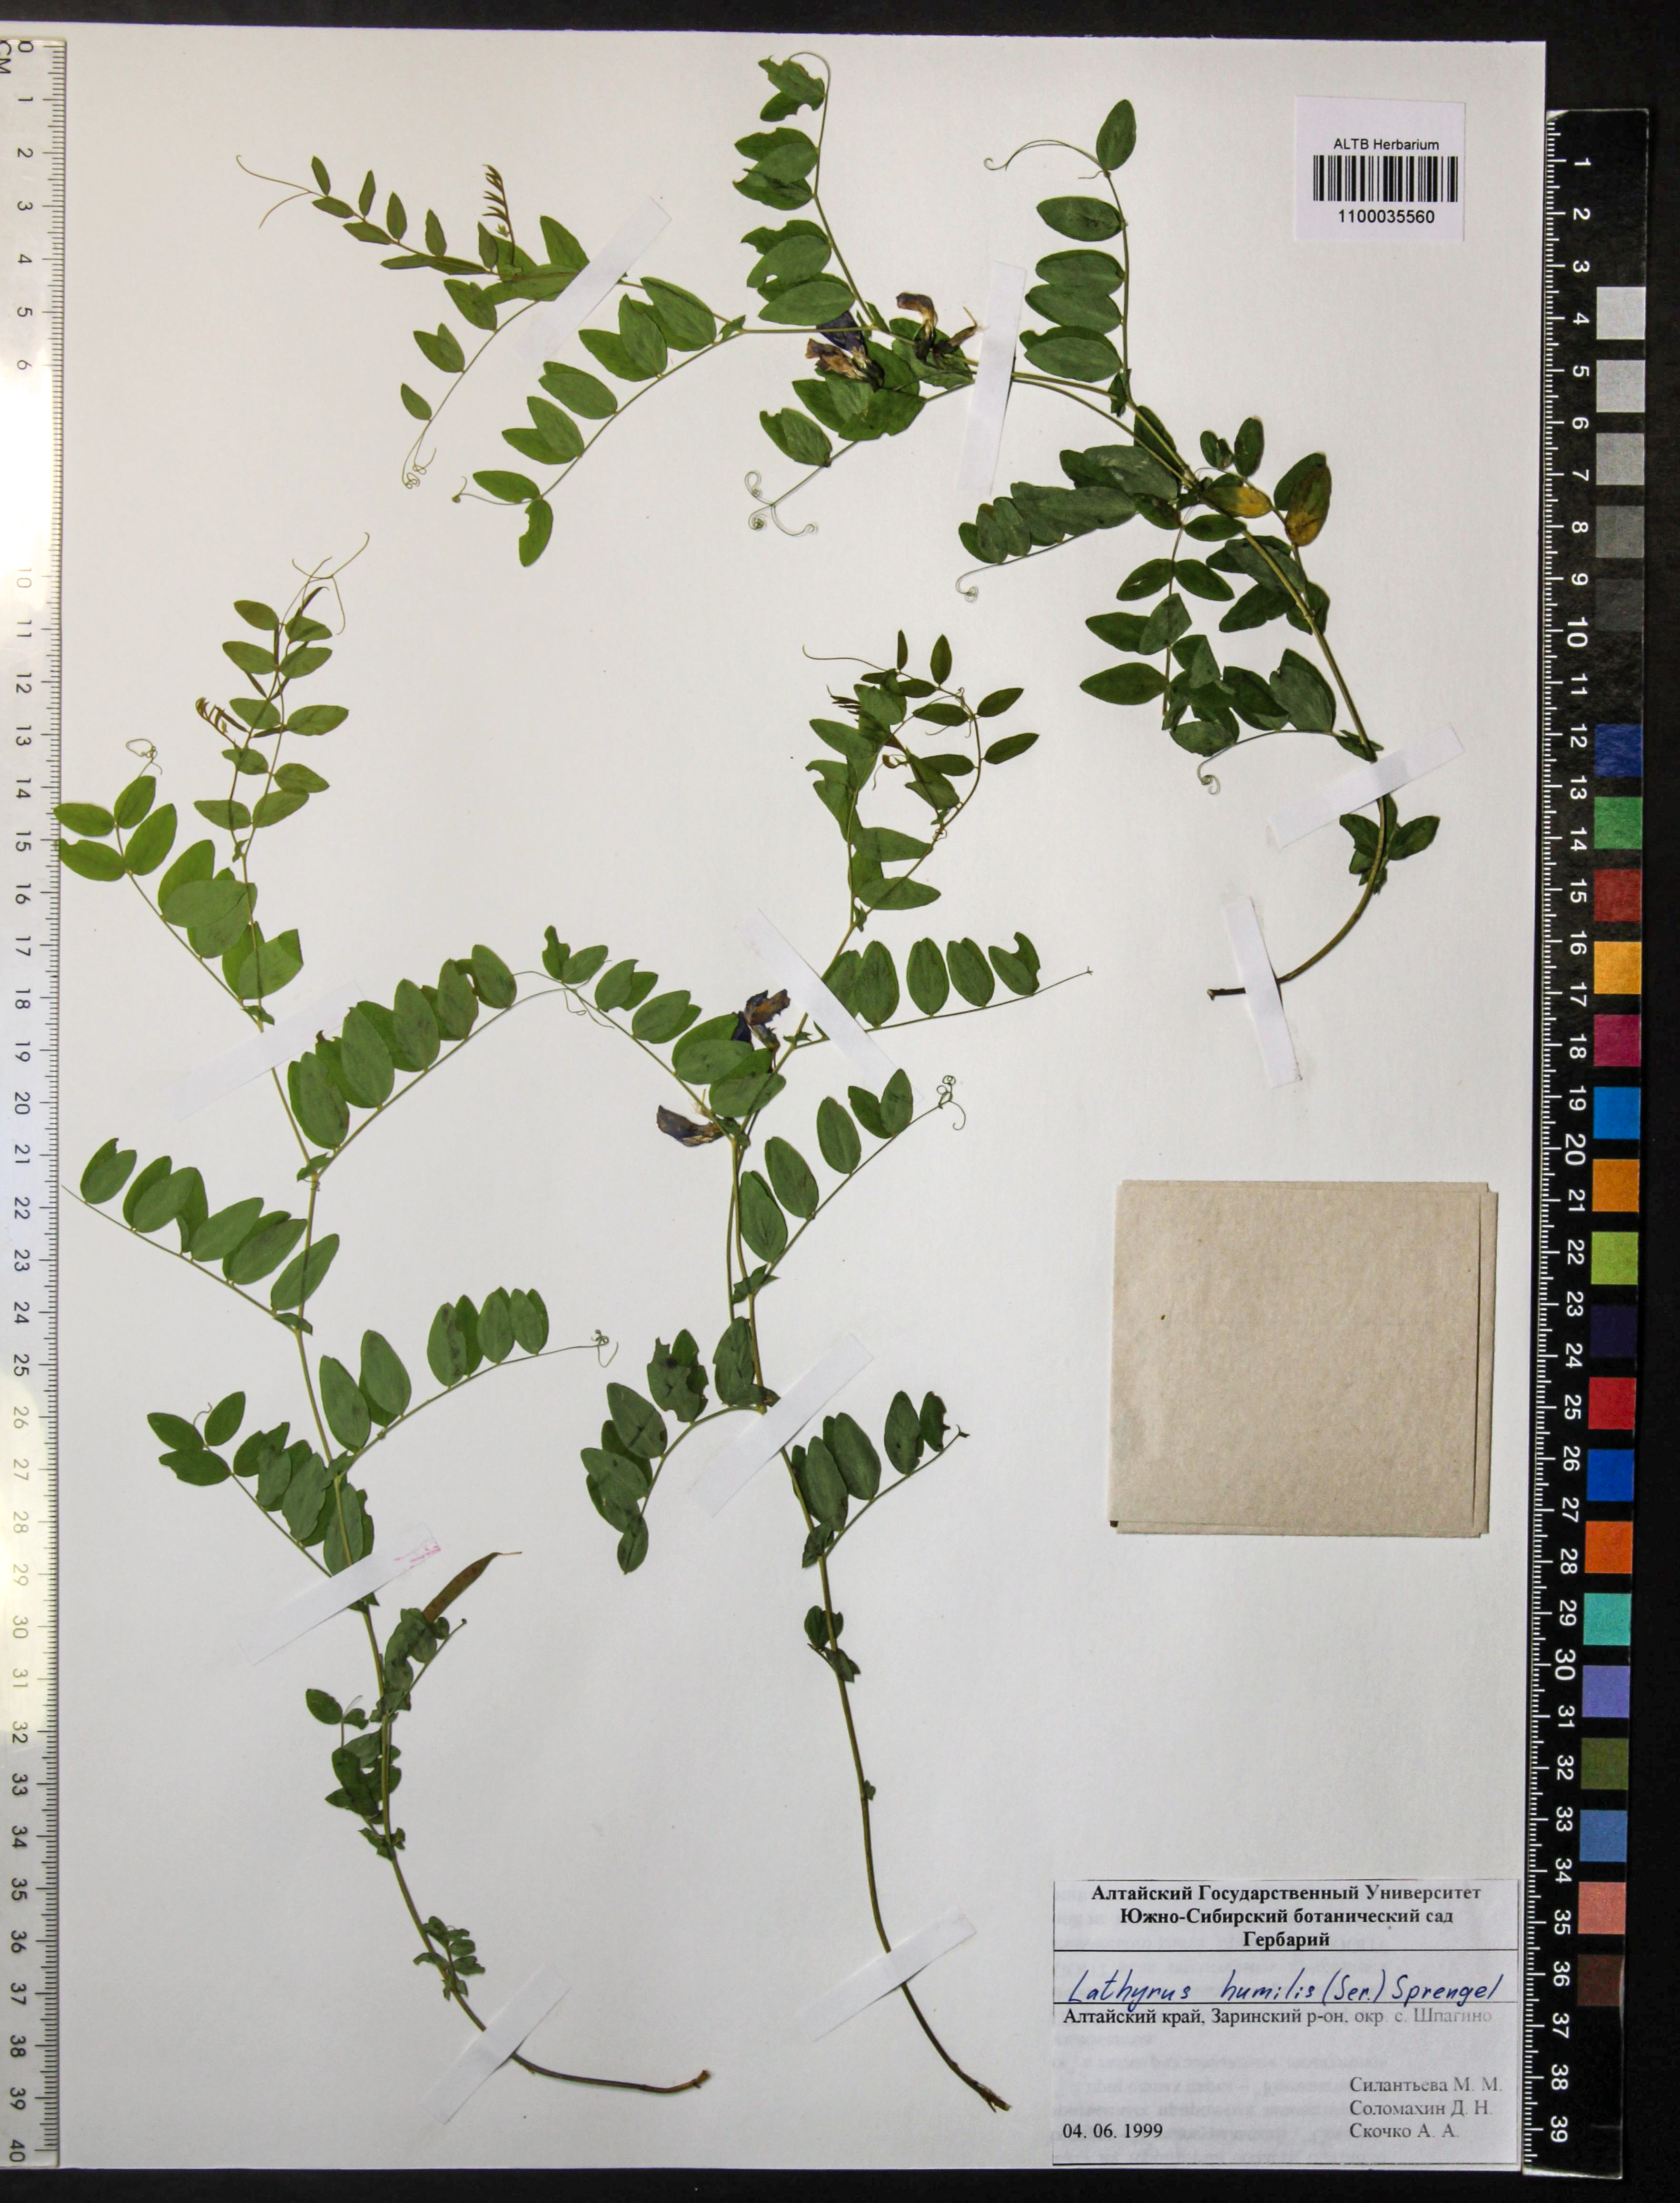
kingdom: Plantae
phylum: Tracheophyta
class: Magnoliopsida
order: Fabales
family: Fabaceae
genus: Lathyrus
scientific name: Lathyrus humilis
